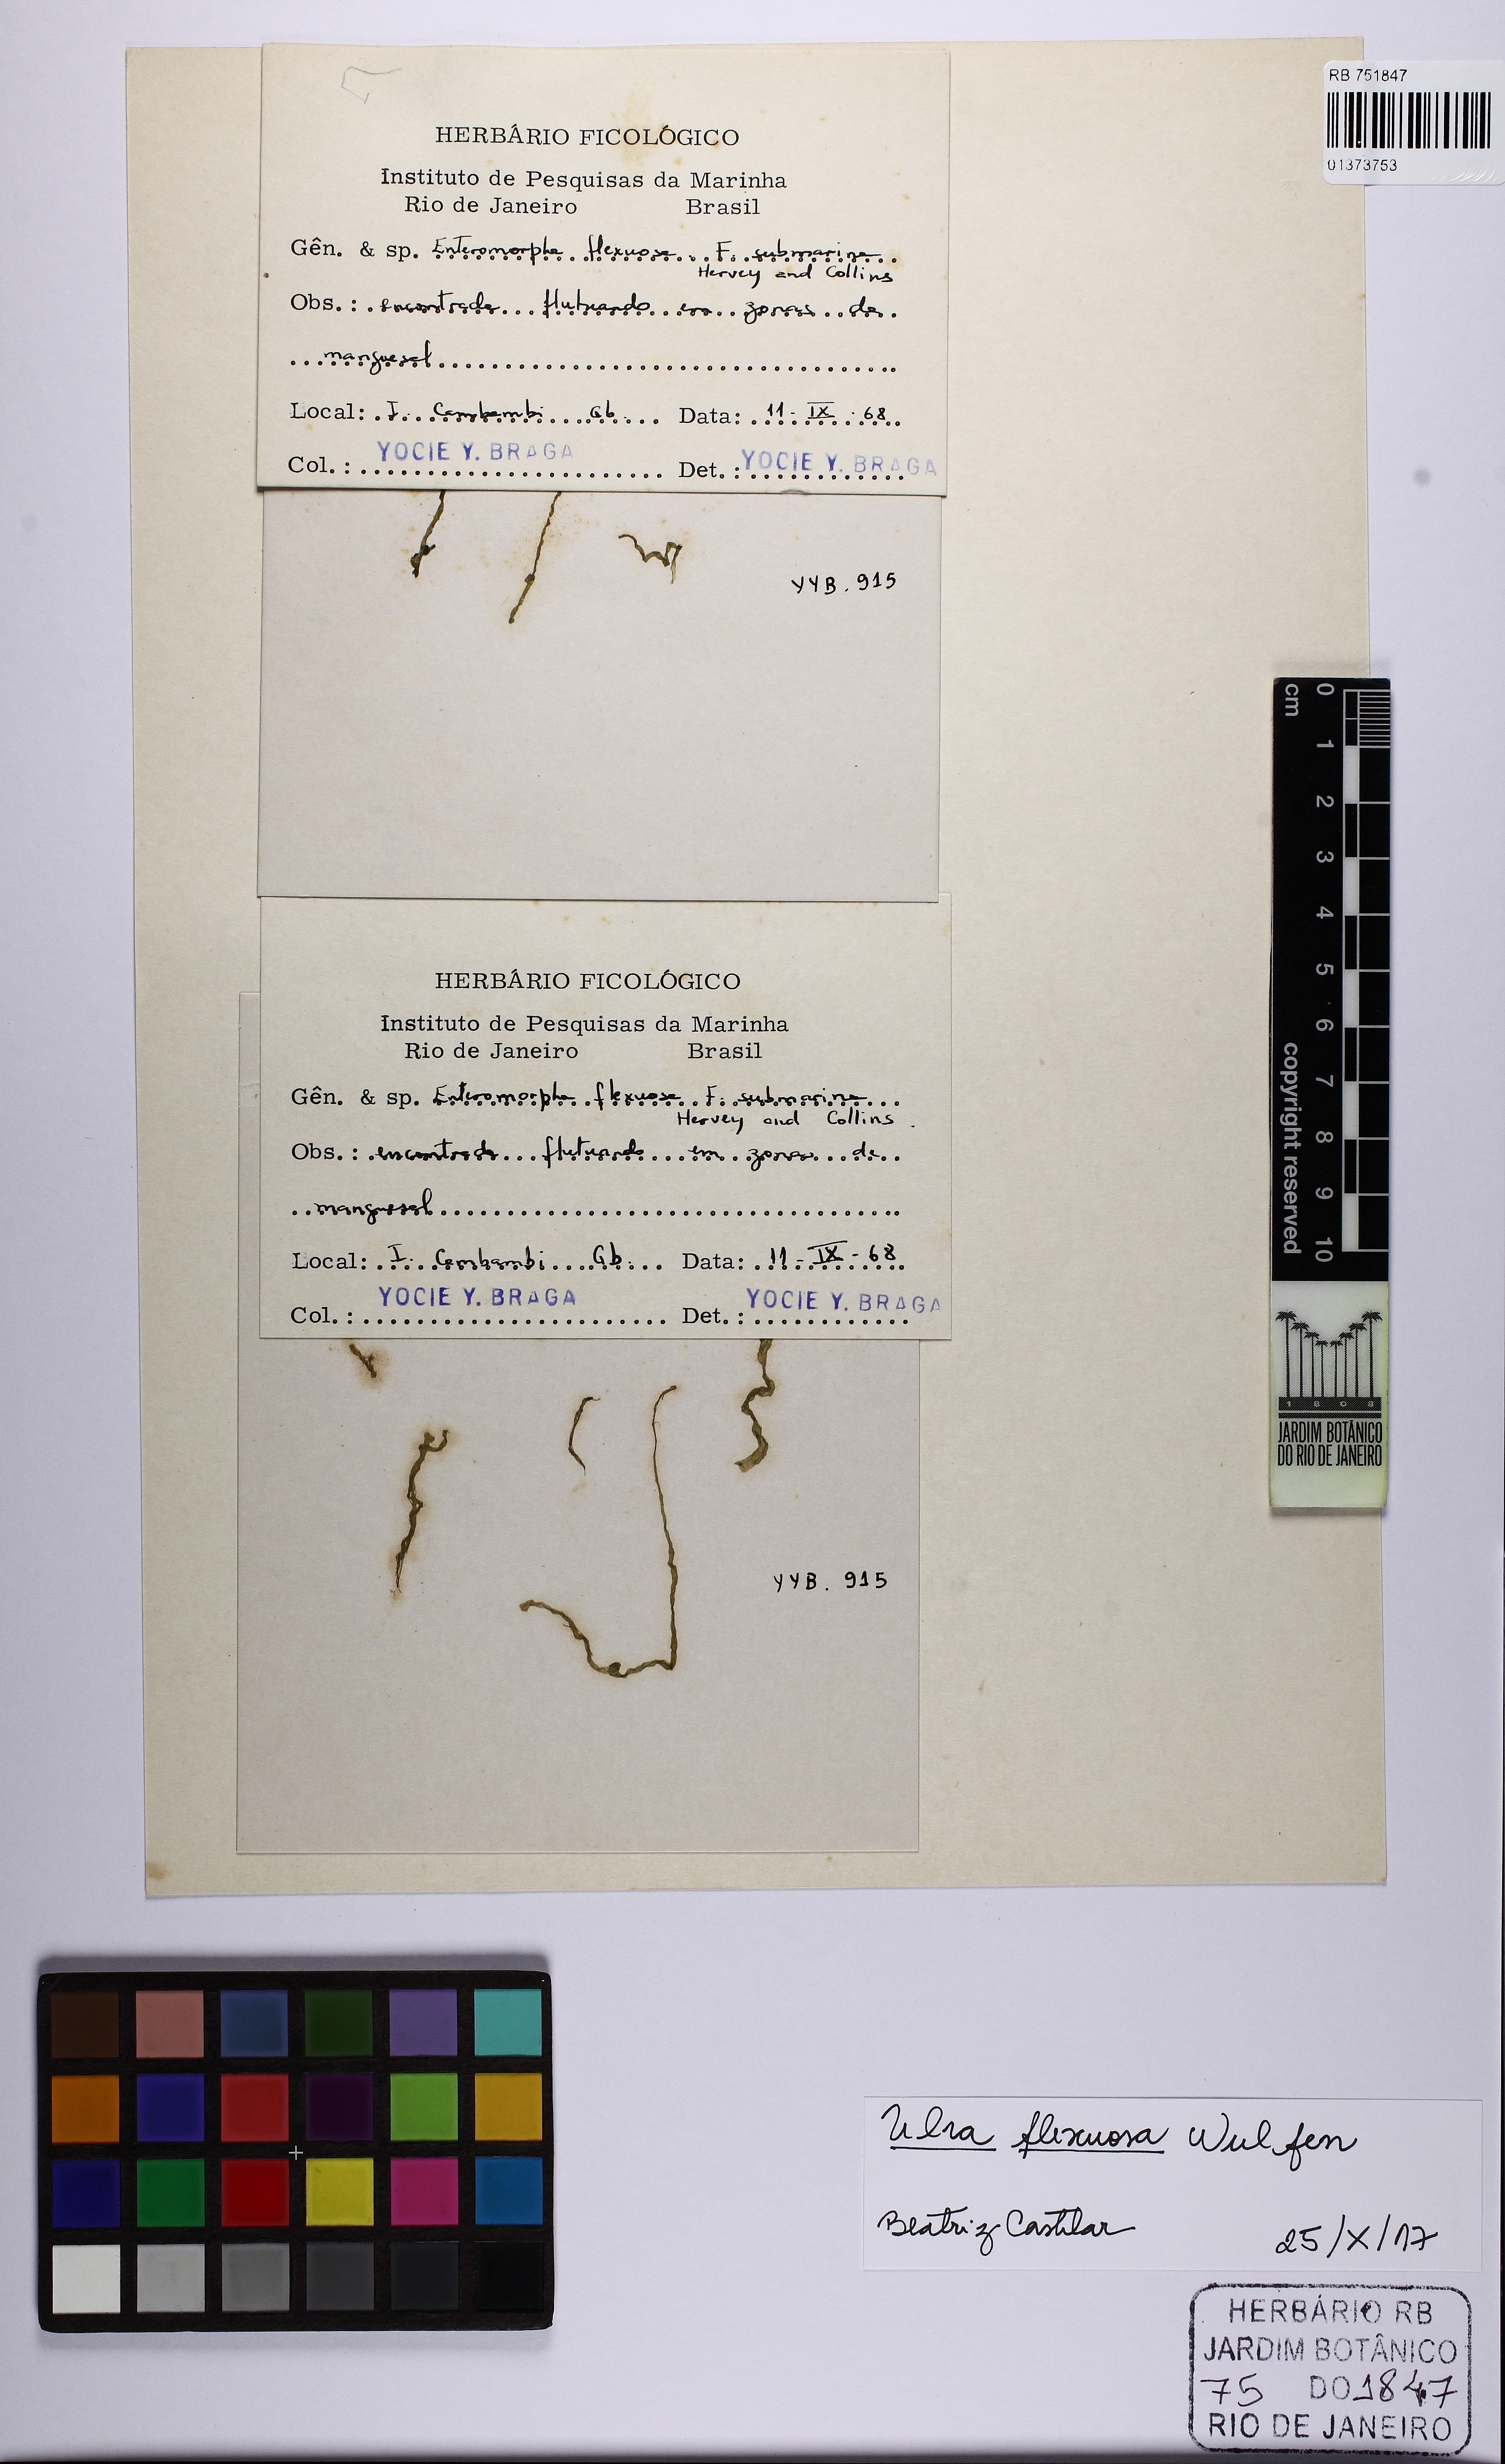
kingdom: Plantae
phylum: Chlorophyta
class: Ulvophyceae
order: Ulvales
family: Ulvaceae
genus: Ulva
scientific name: Ulva flexuosa
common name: Flexuous gutweed
